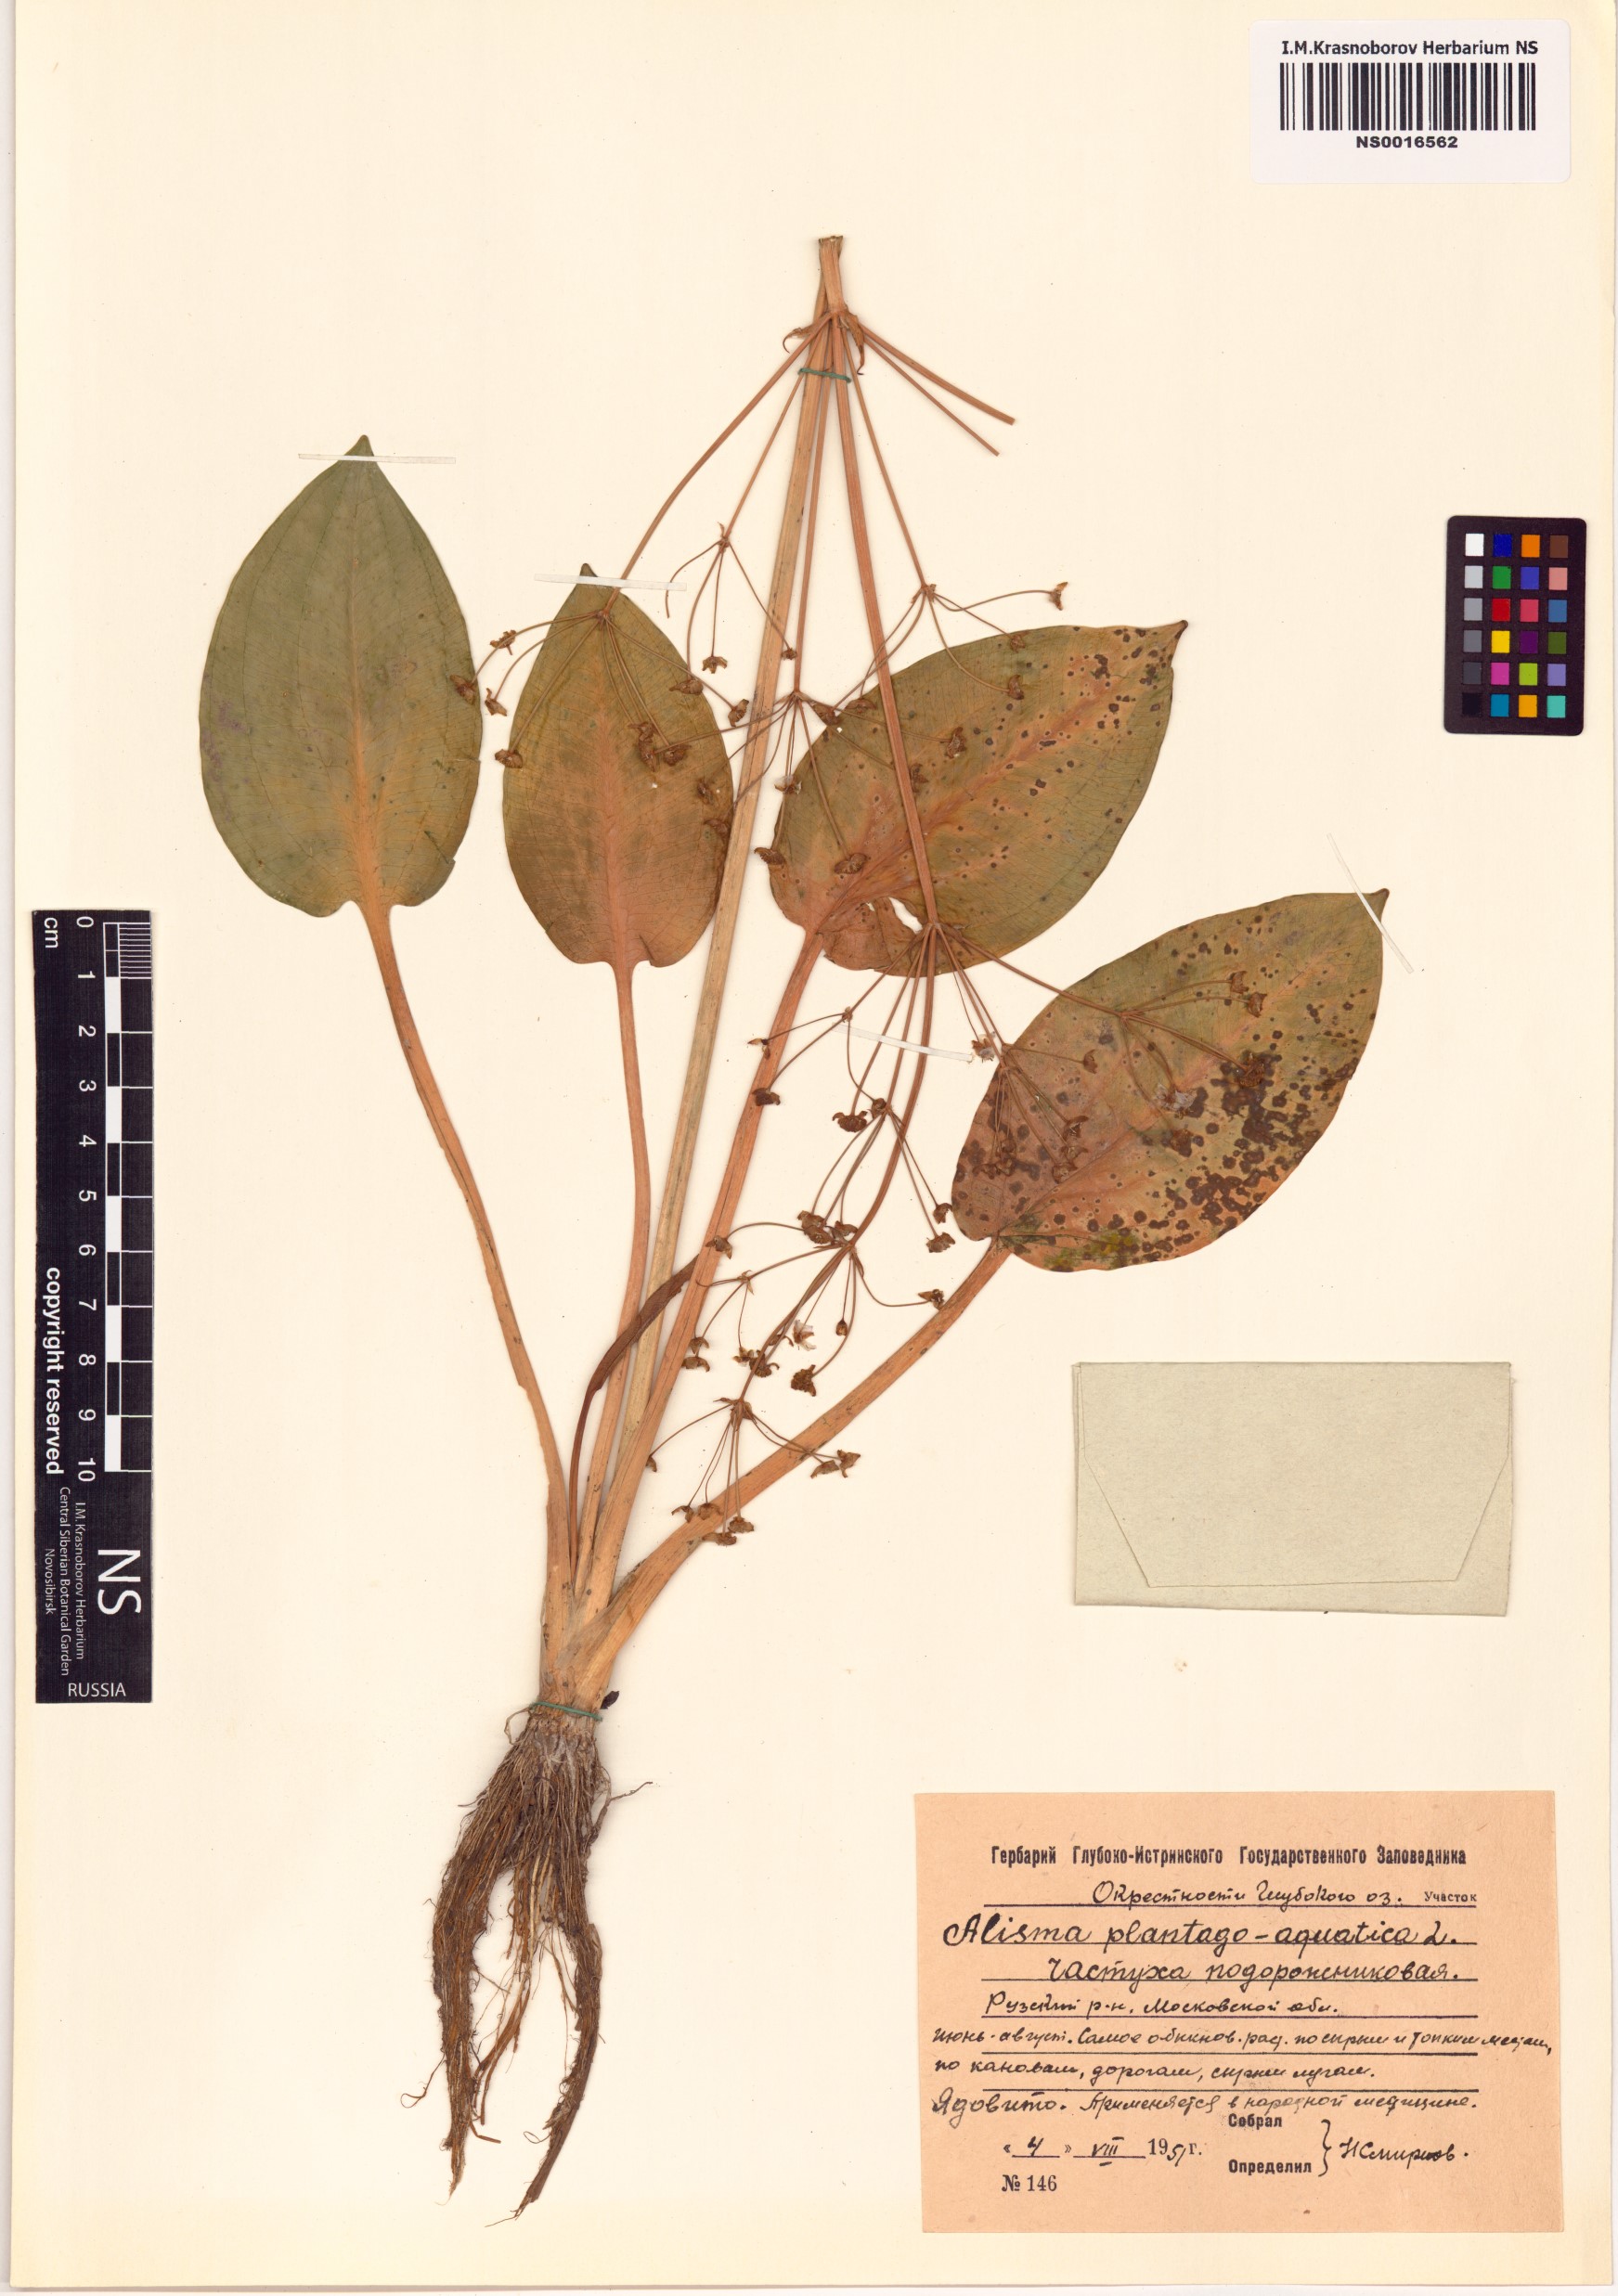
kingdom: Plantae
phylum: Tracheophyta
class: Liliopsida
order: Alismatales
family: Alismataceae
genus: Alisma
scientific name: Alisma plantago-aquatica
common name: Water-plantain
